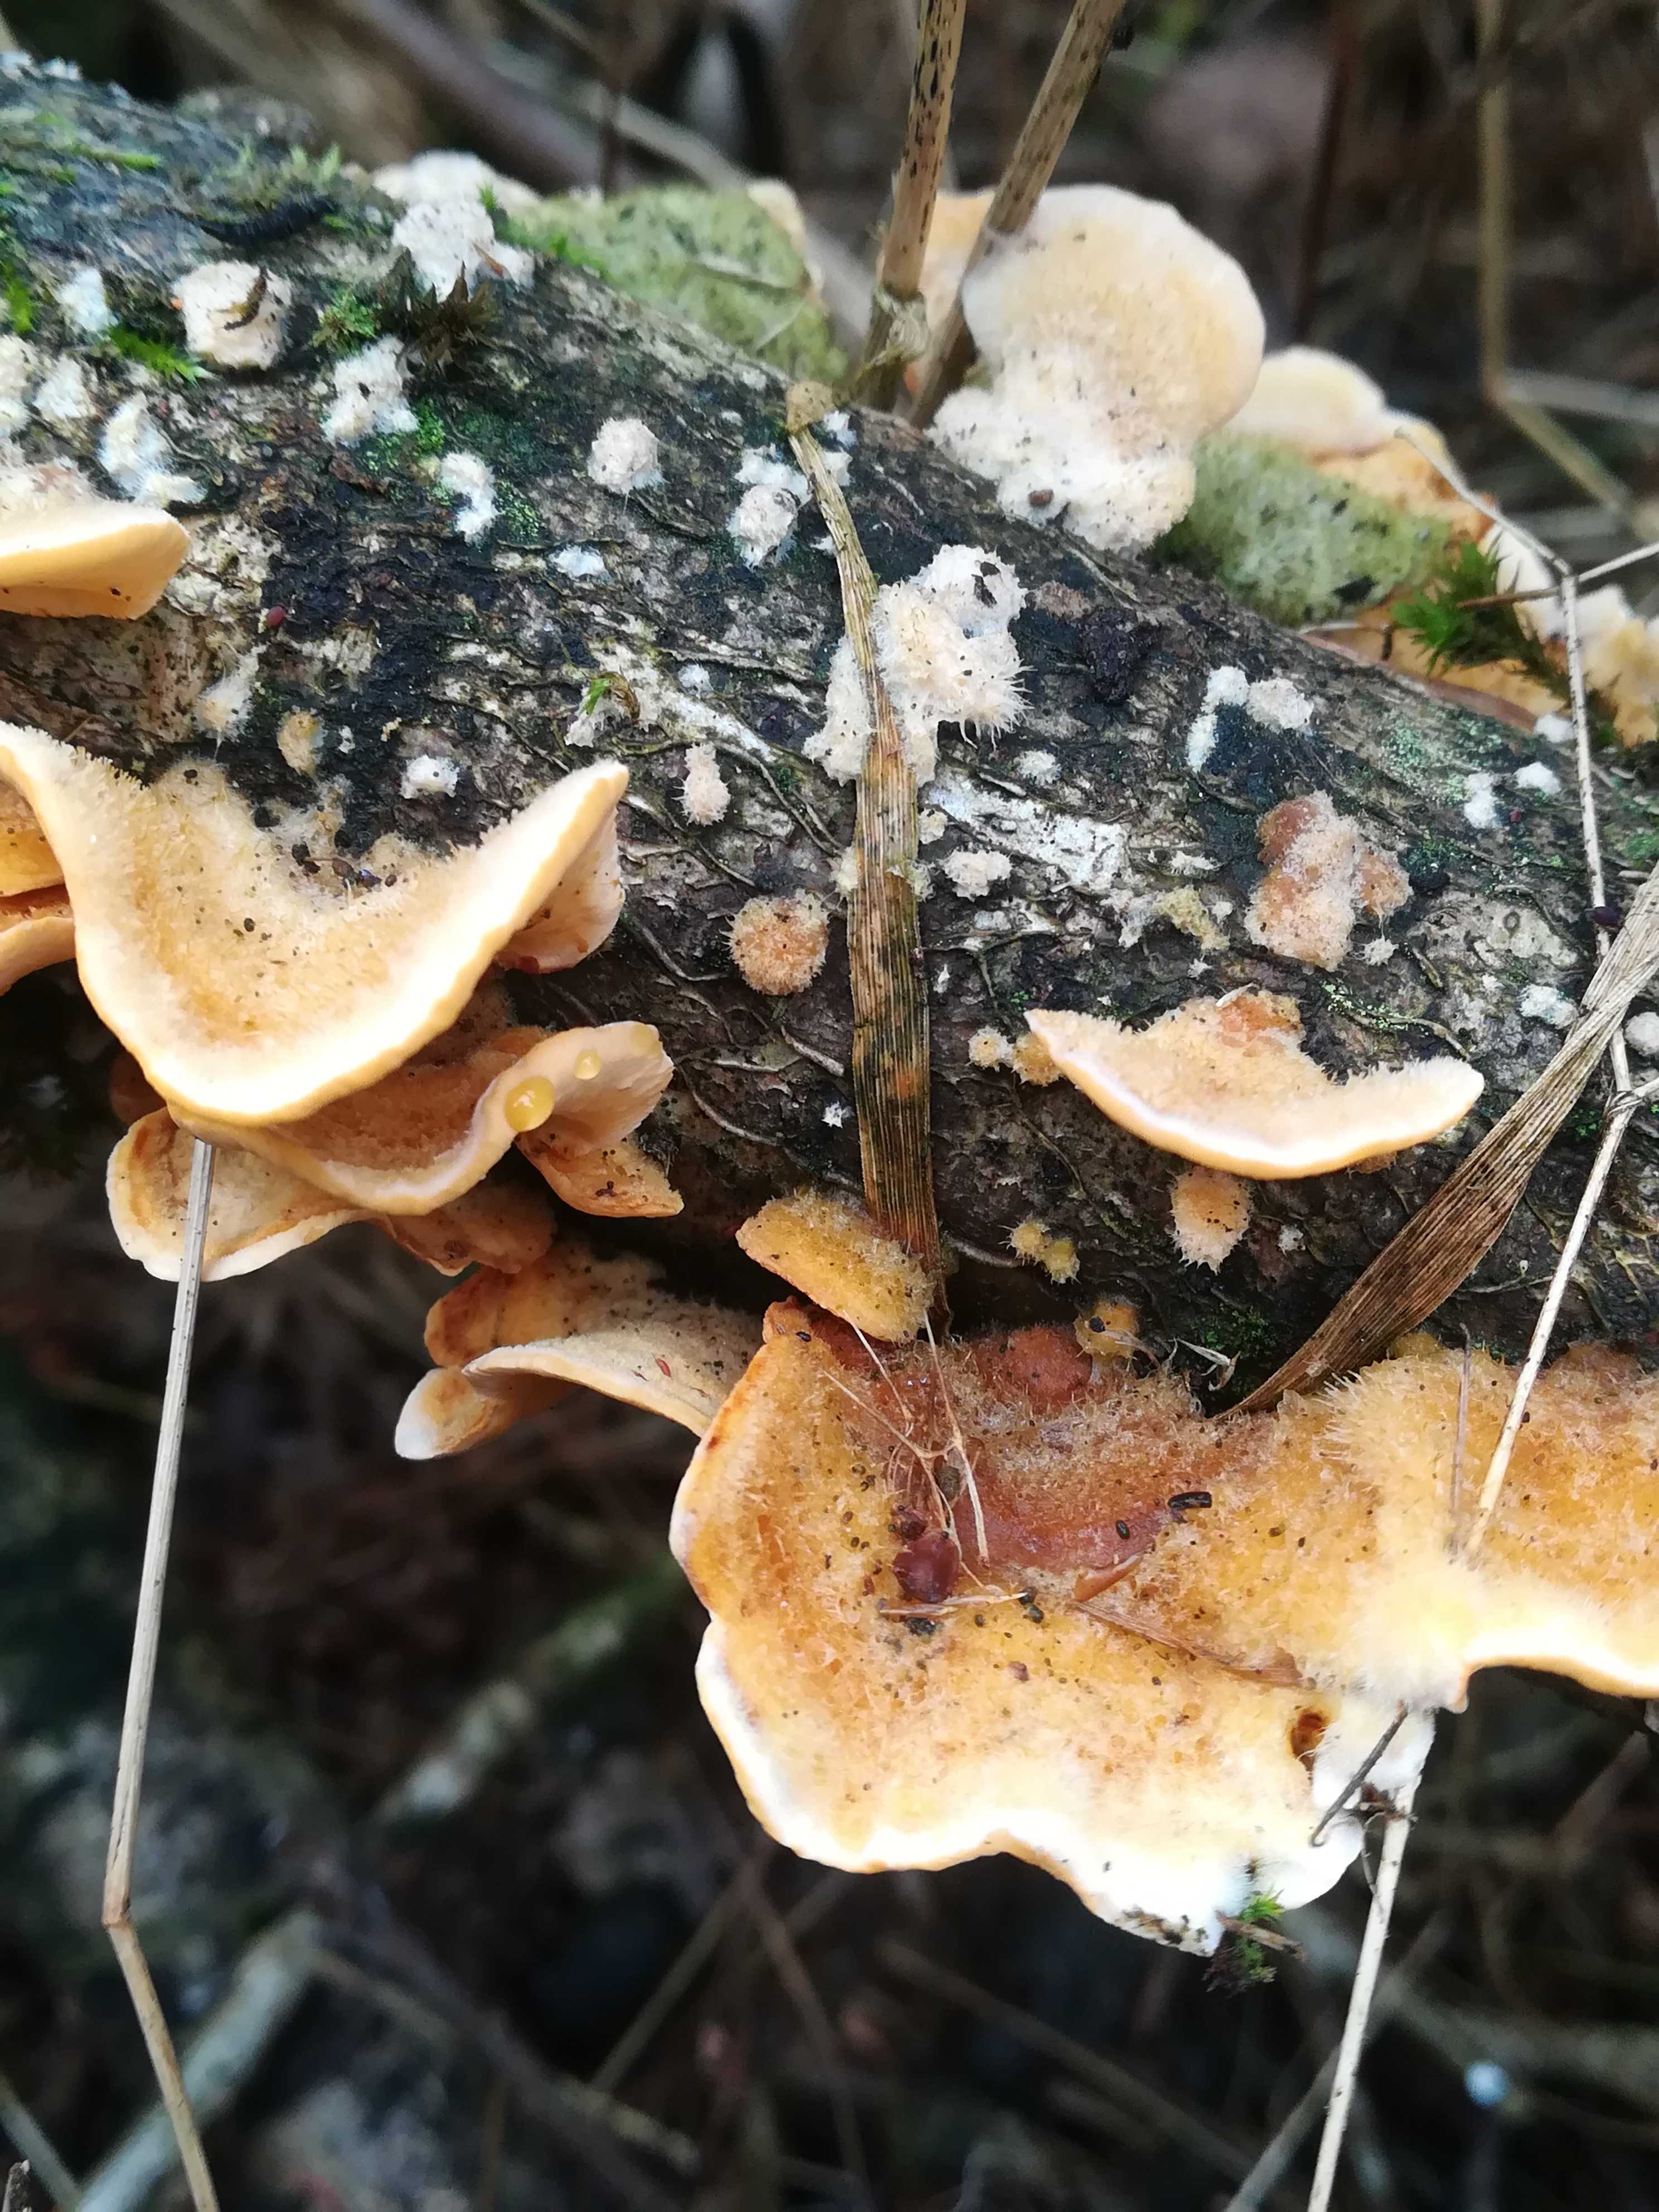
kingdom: Fungi
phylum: Basidiomycota
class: Agaricomycetes
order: Russulales
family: Stereaceae
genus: Stereum
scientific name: Stereum hirsutum
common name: håret lædersvamp
